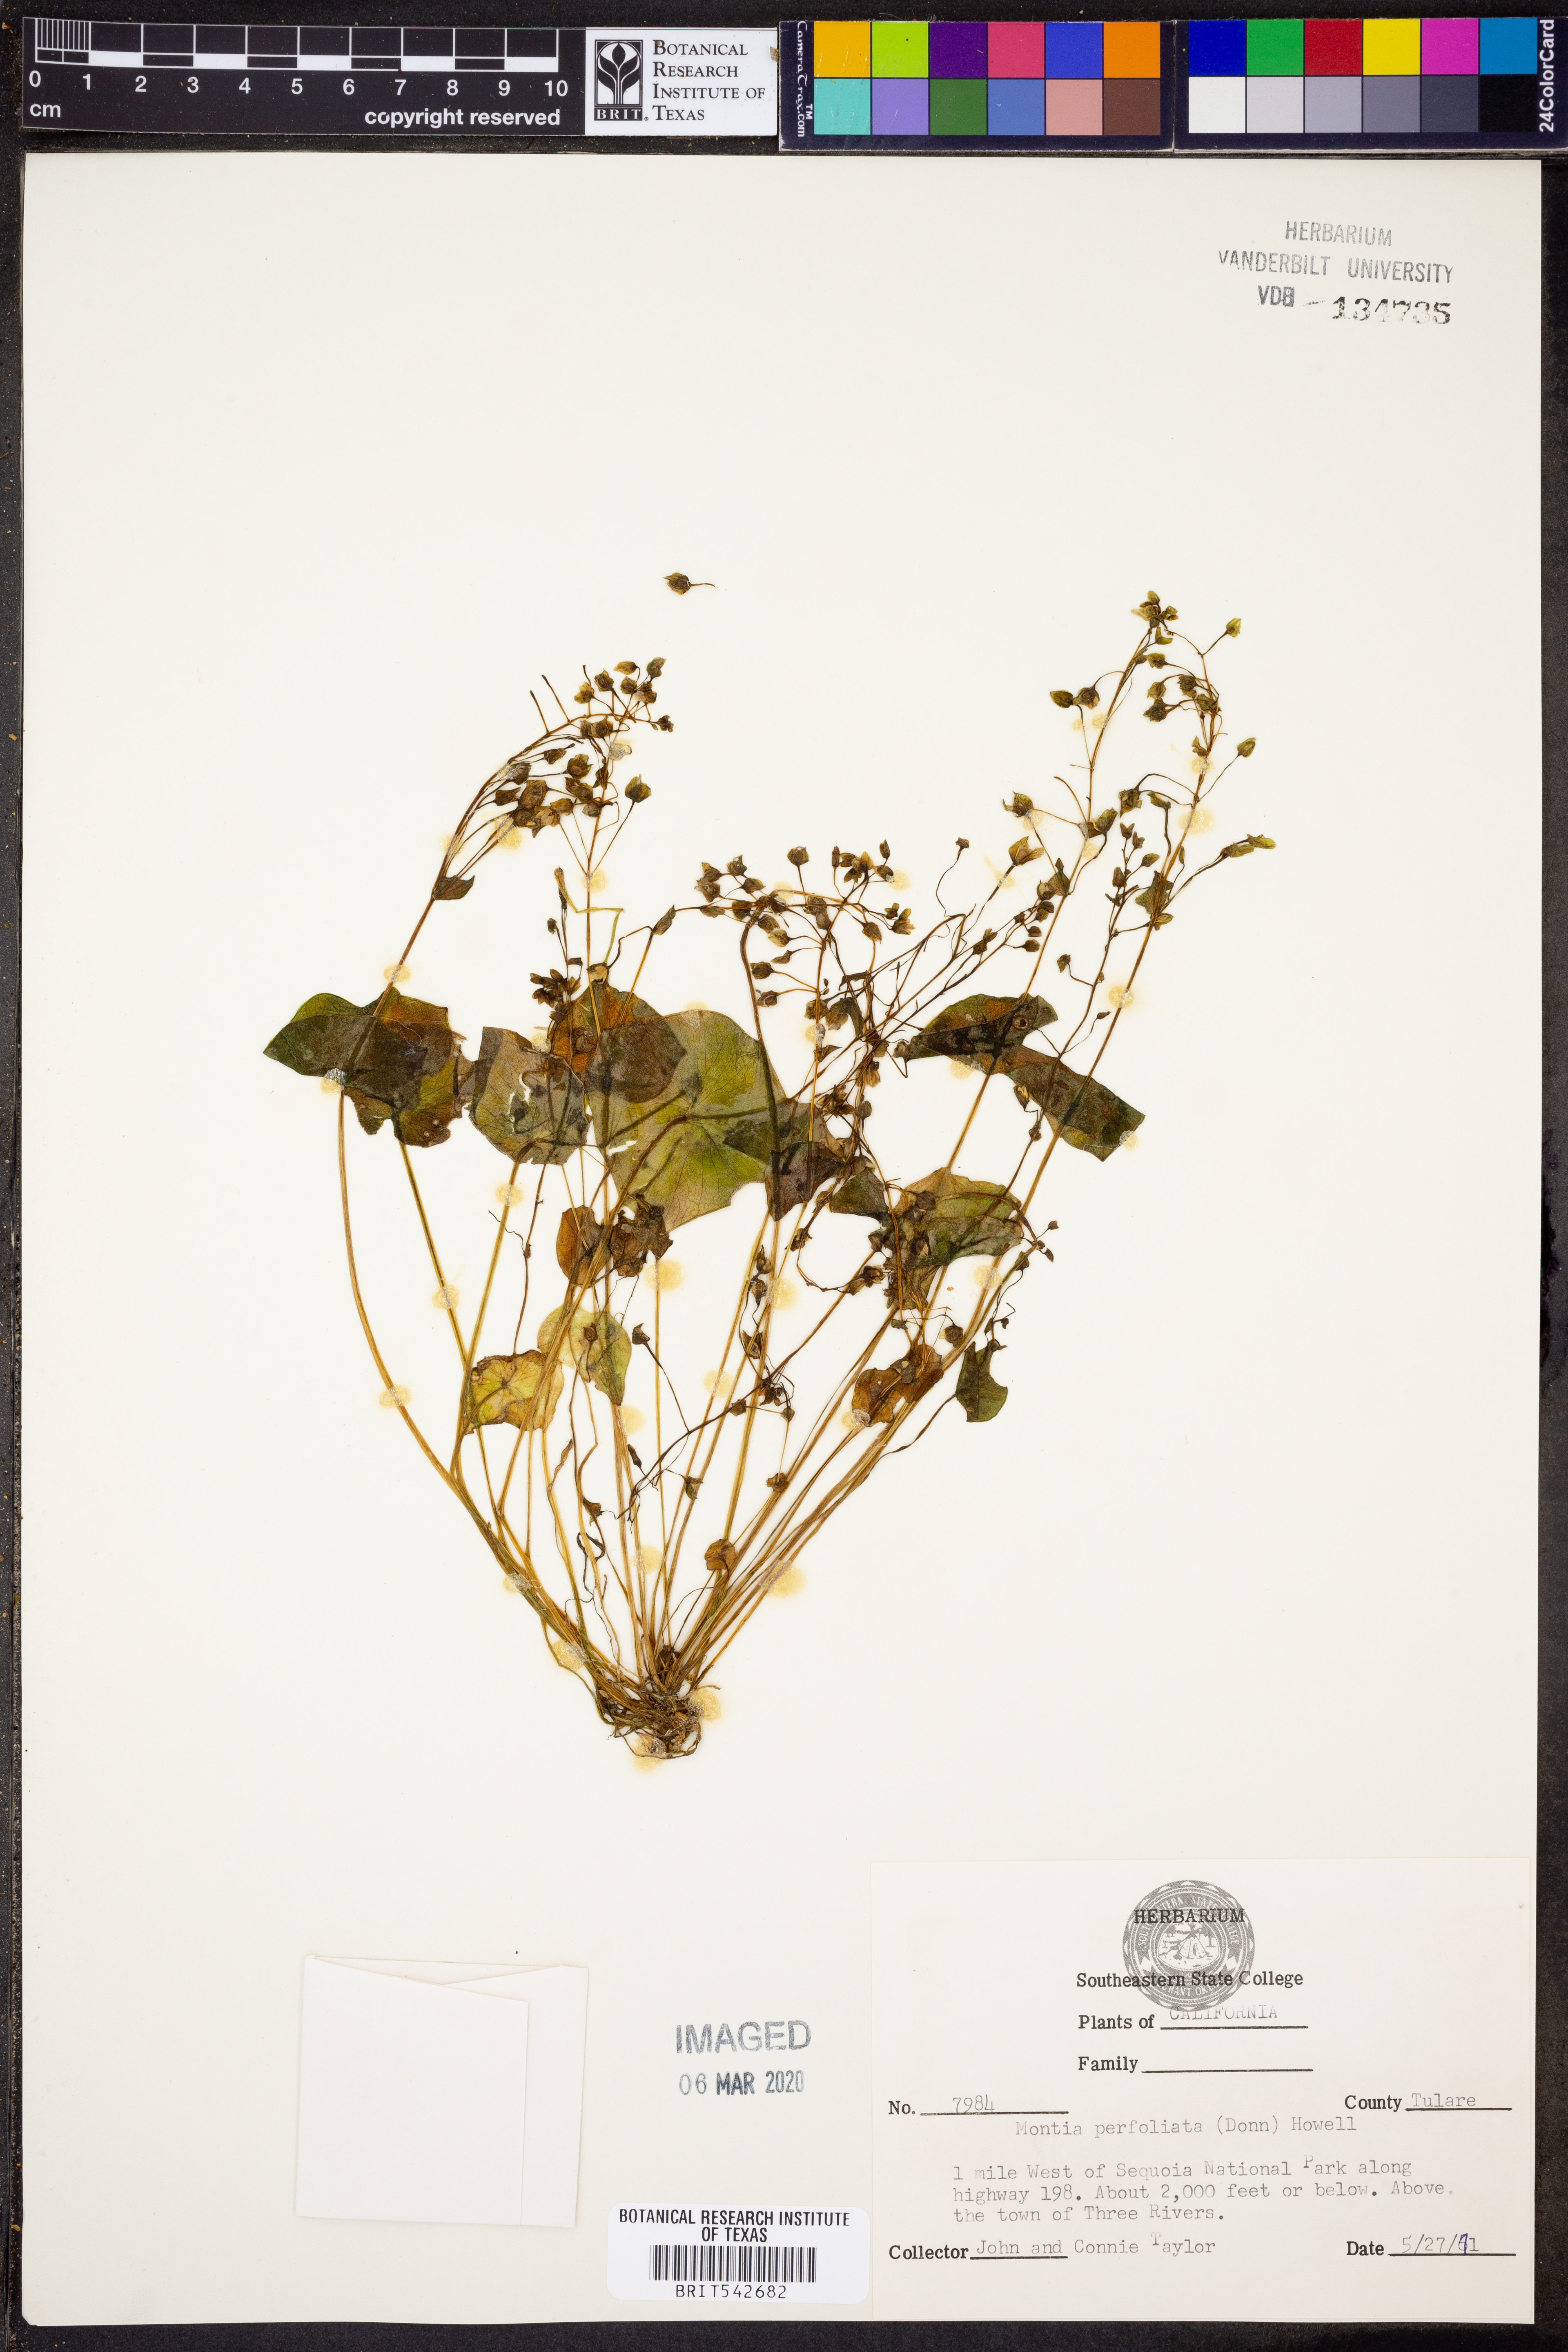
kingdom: Plantae
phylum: Tracheophyta
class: Magnoliopsida
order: Caryophyllales
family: Montiaceae
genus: Claytonia
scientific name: Claytonia perfoliata
